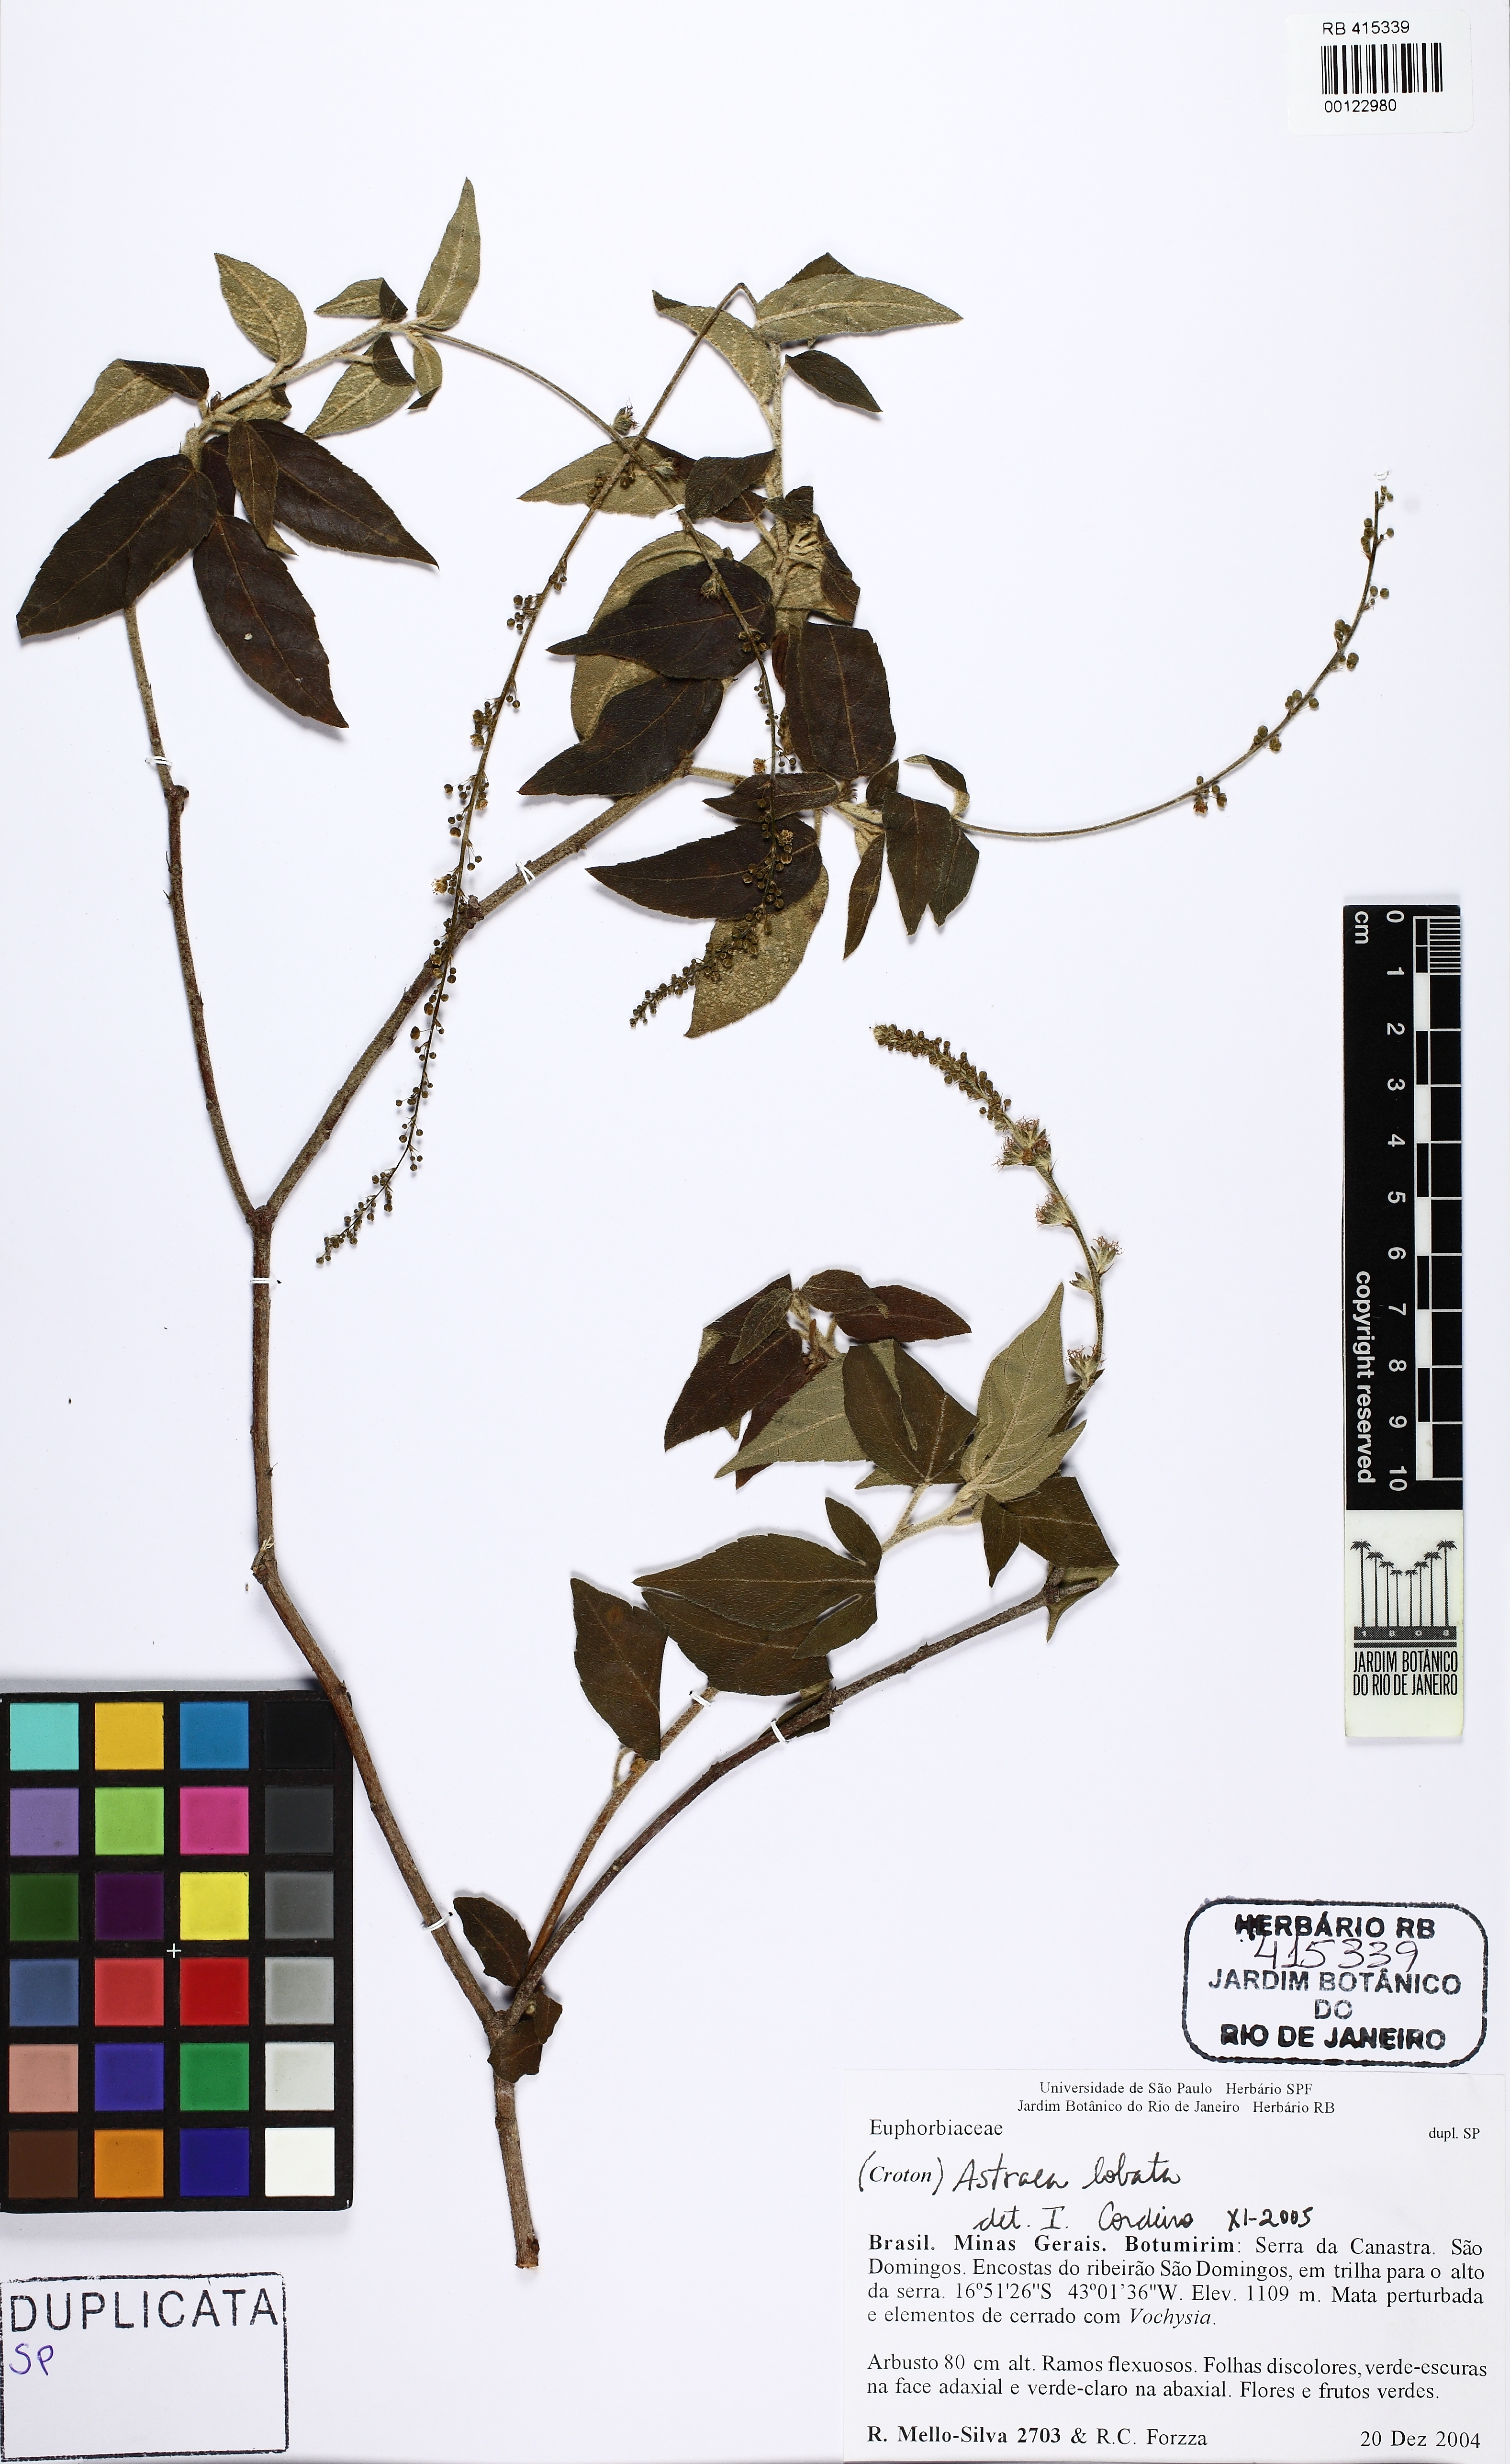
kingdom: Plantae
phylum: Tracheophyta
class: Magnoliopsida
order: Malpighiales
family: Euphorbiaceae
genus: Astraea
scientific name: Astraea subcomosa
